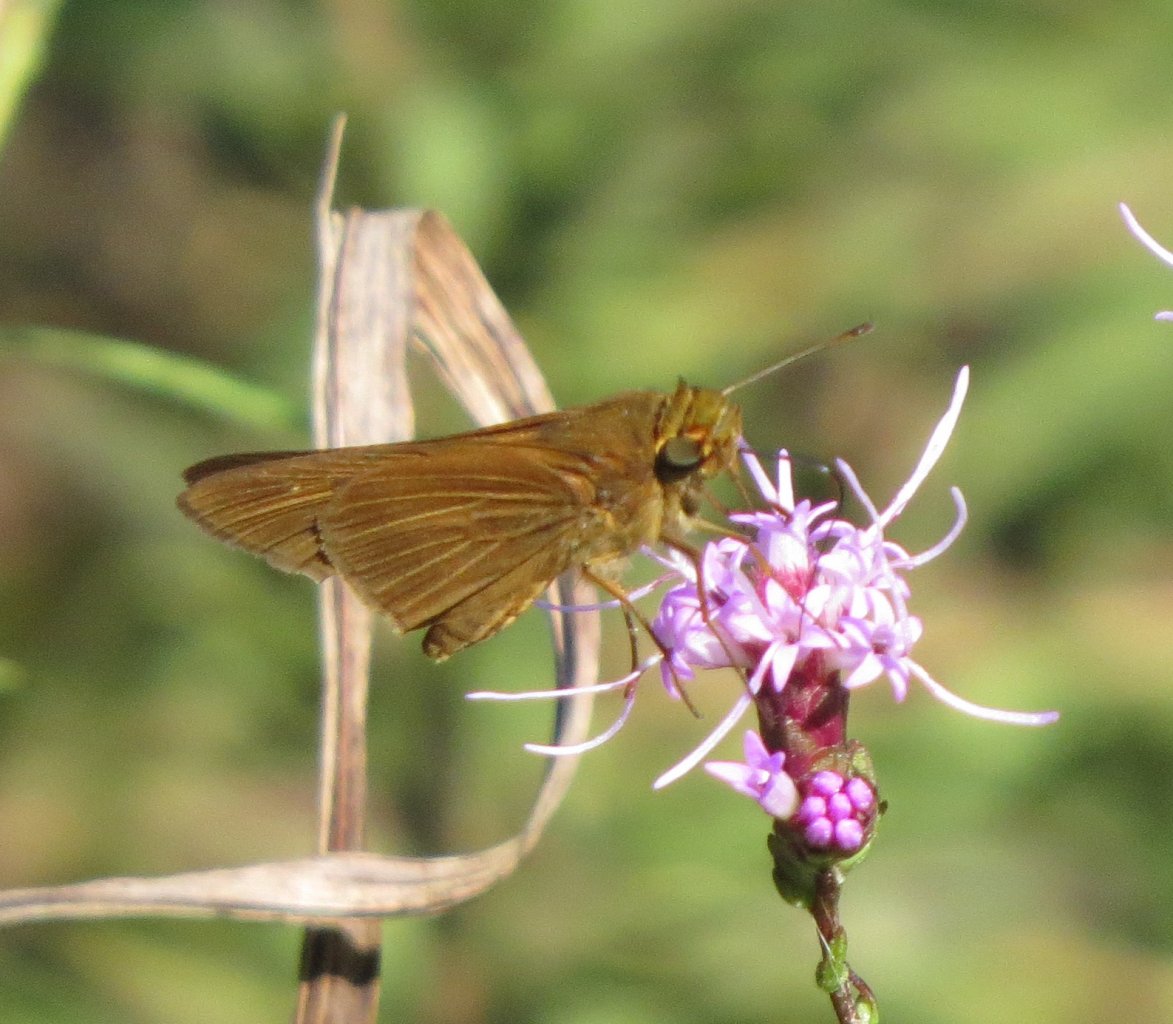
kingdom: Animalia
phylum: Arthropoda
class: Insecta
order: Lepidoptera
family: Hesperiidae
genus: Panoquina
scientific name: Panoquina ocola
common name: Ocola Skipper
